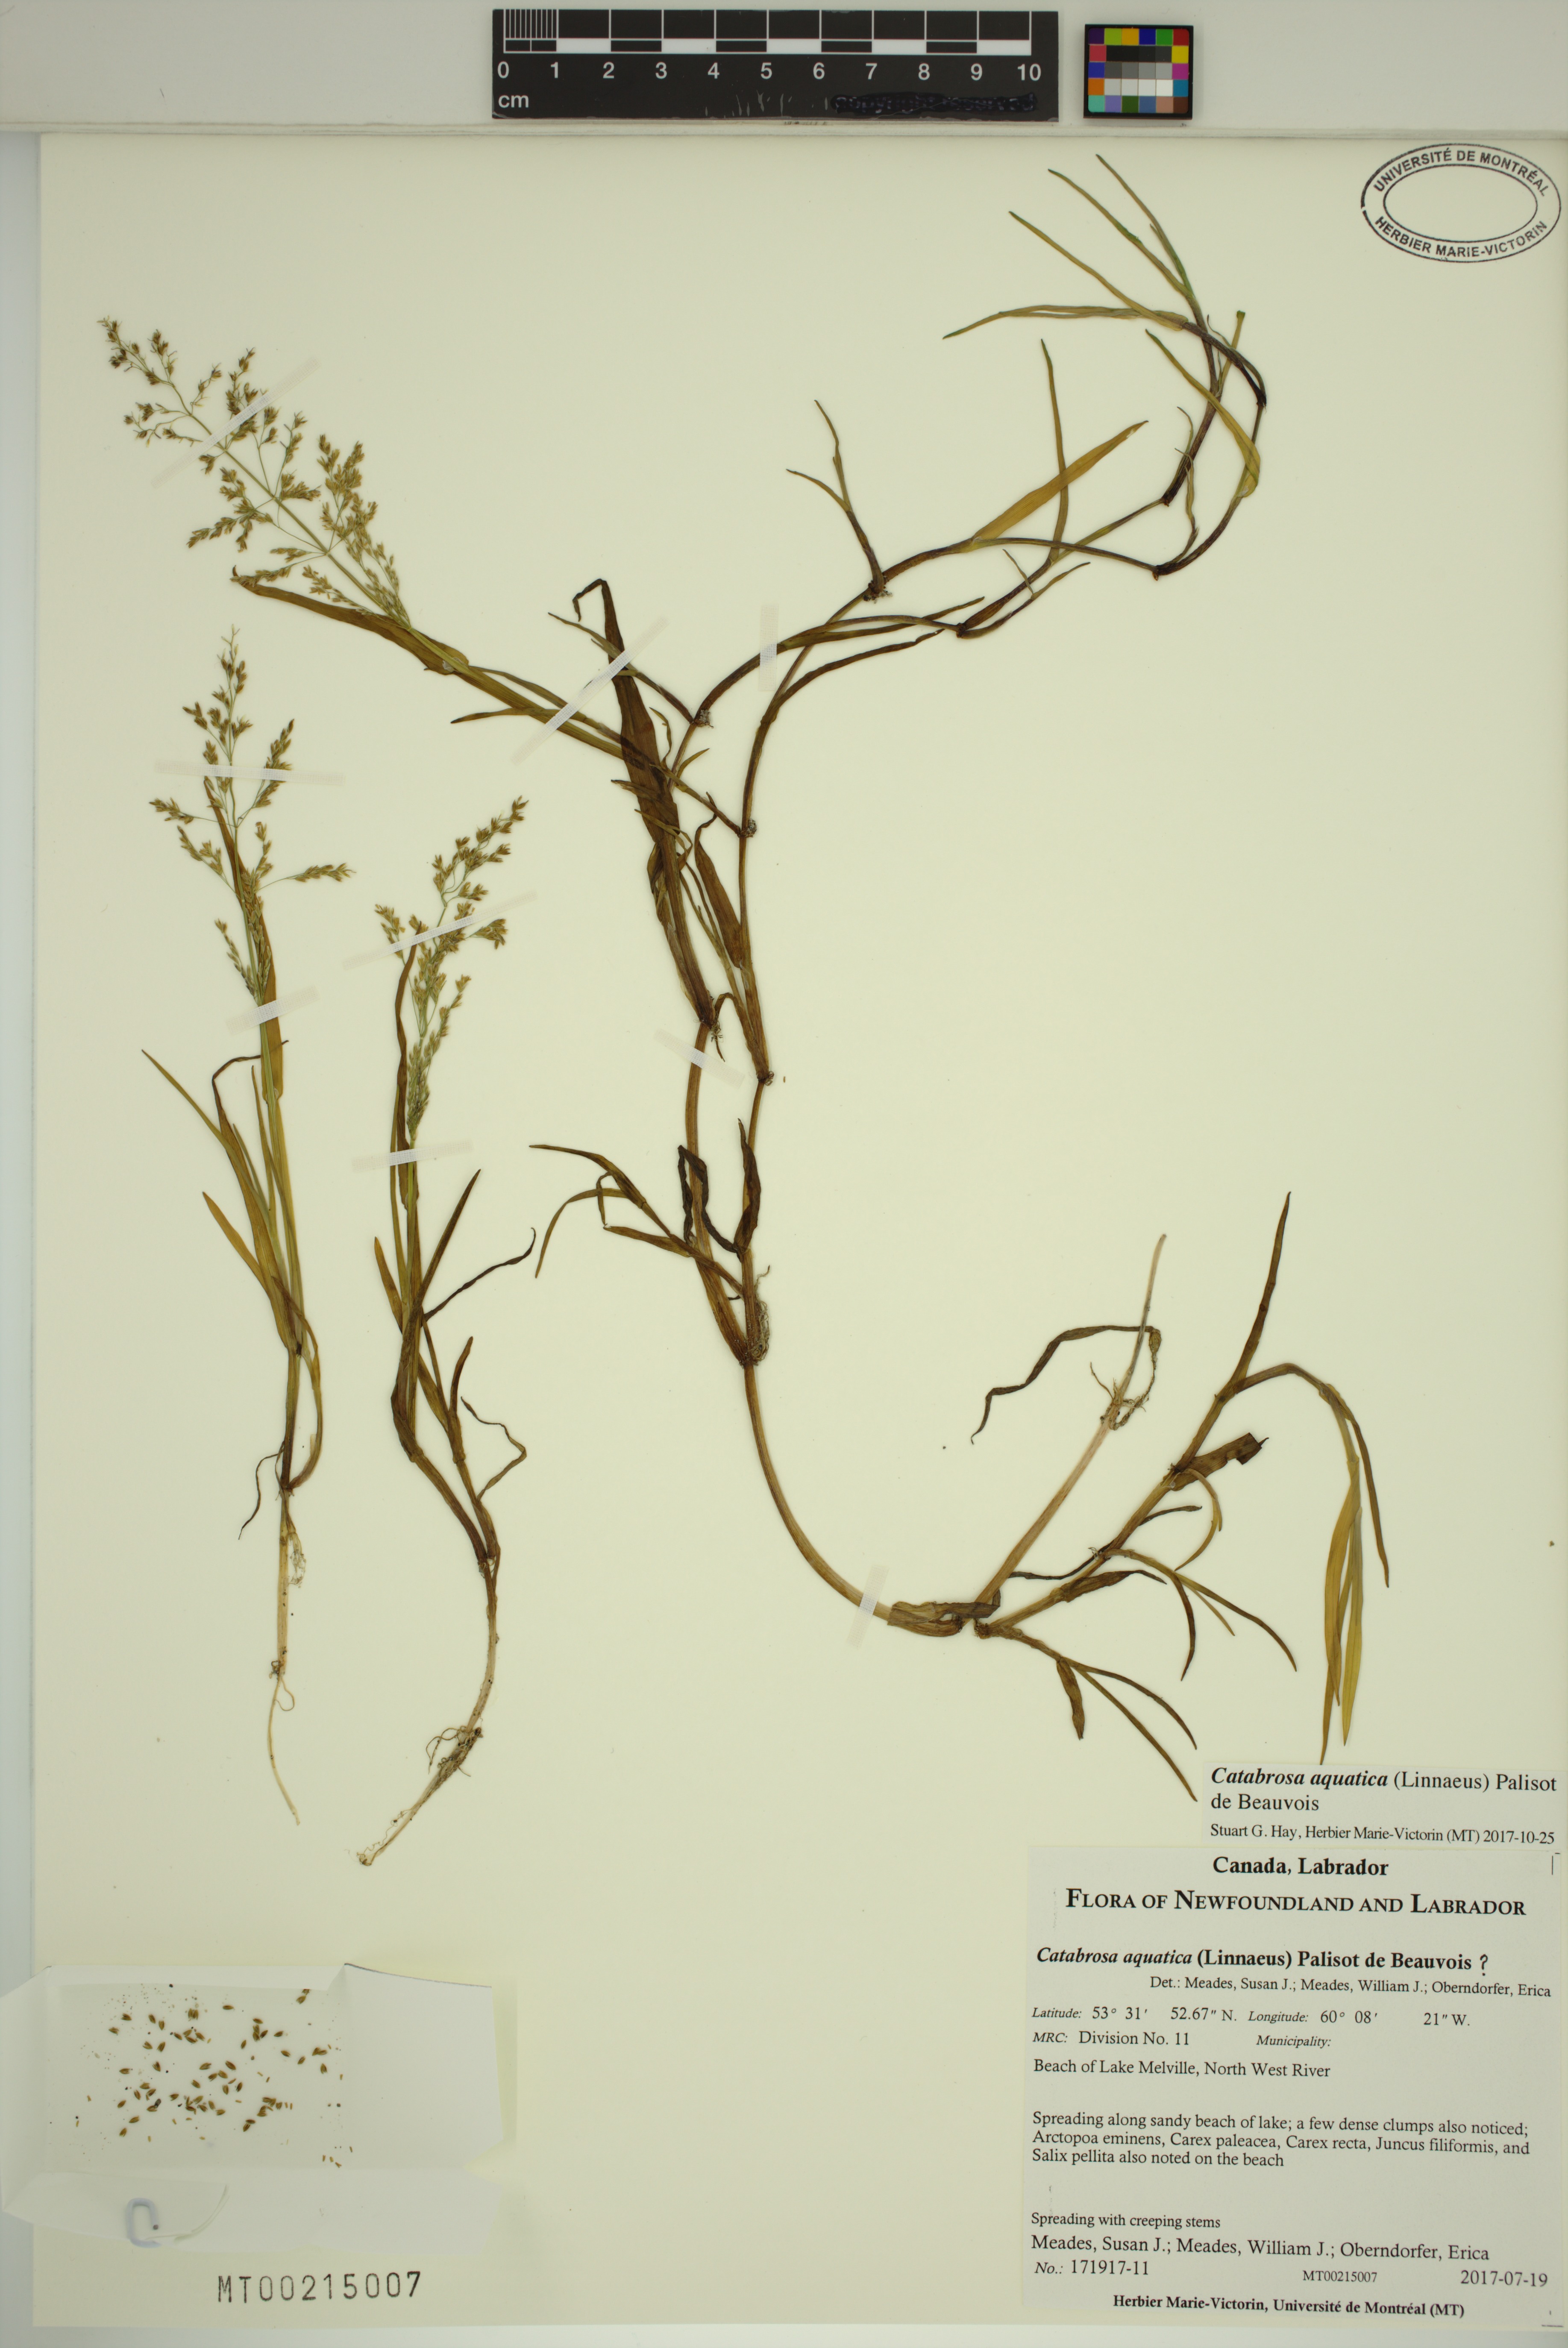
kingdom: Plantae
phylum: Tracheophyta
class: Liliopsida
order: Poales
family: Poaceae
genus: Catabrosa
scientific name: Catabrosa aquatica
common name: Whorl-grass
